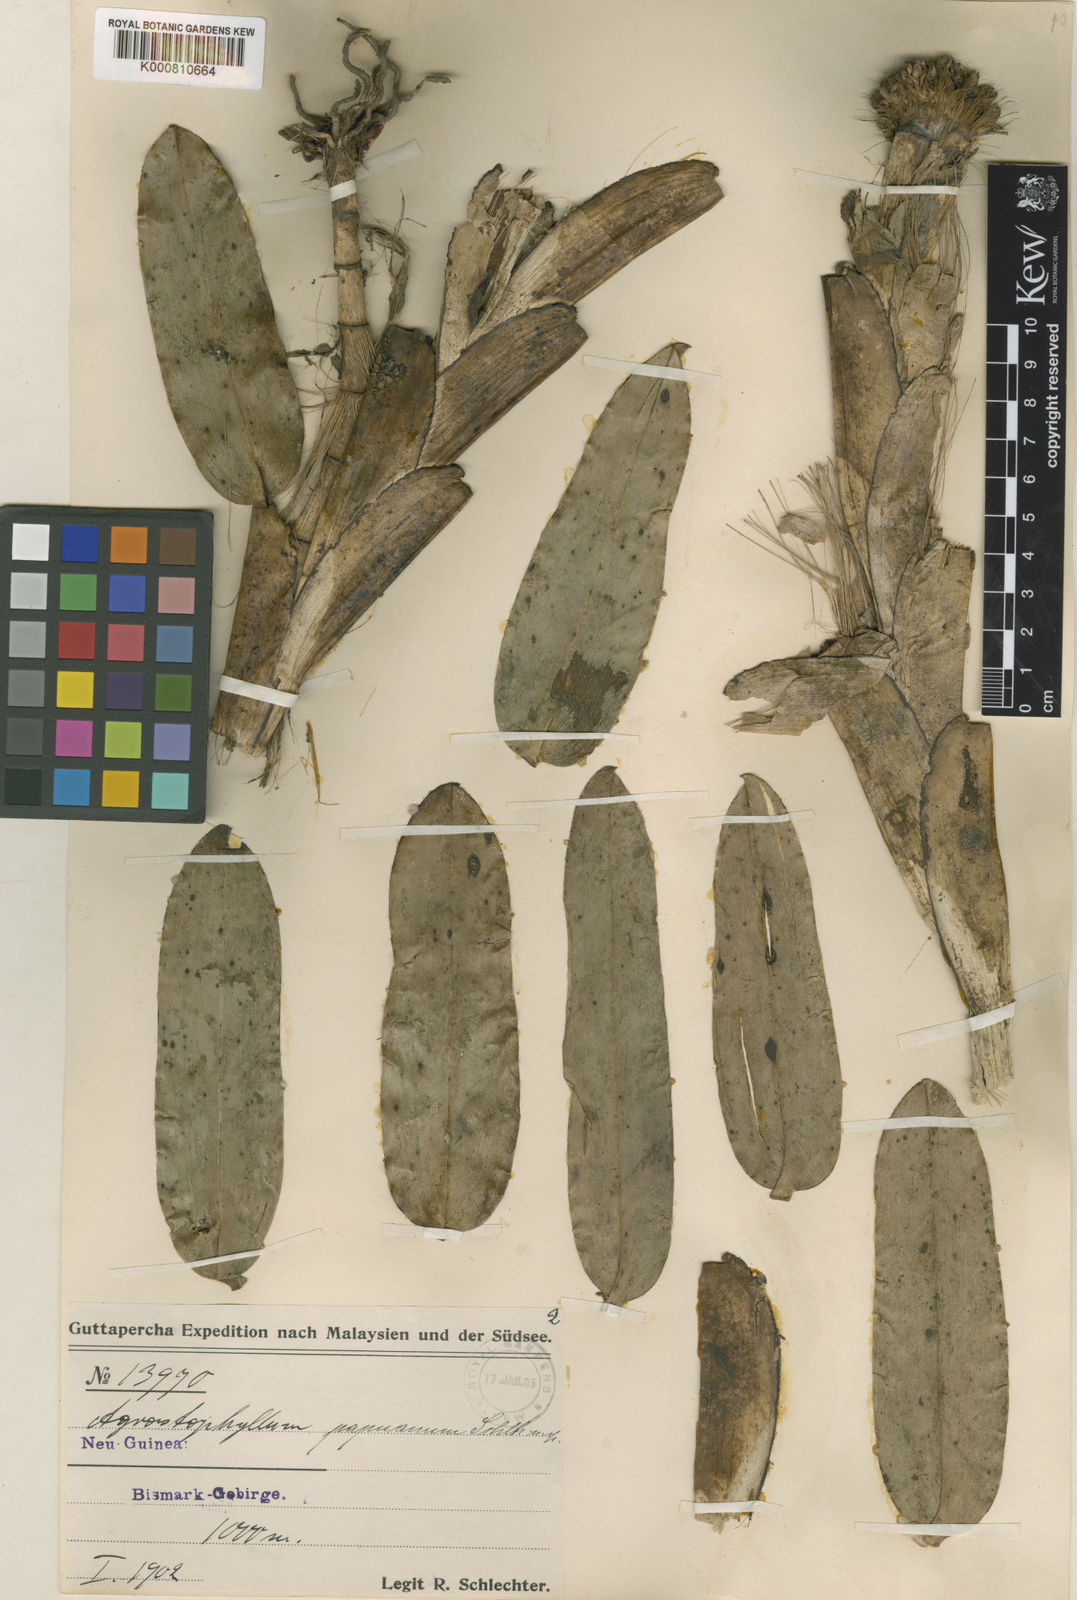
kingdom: Plantae
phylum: Tracheophyta
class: Liliopsida
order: Asparagales
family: Orchidaceae
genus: Agrostophyllum
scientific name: Agrostophyllum papuanum
